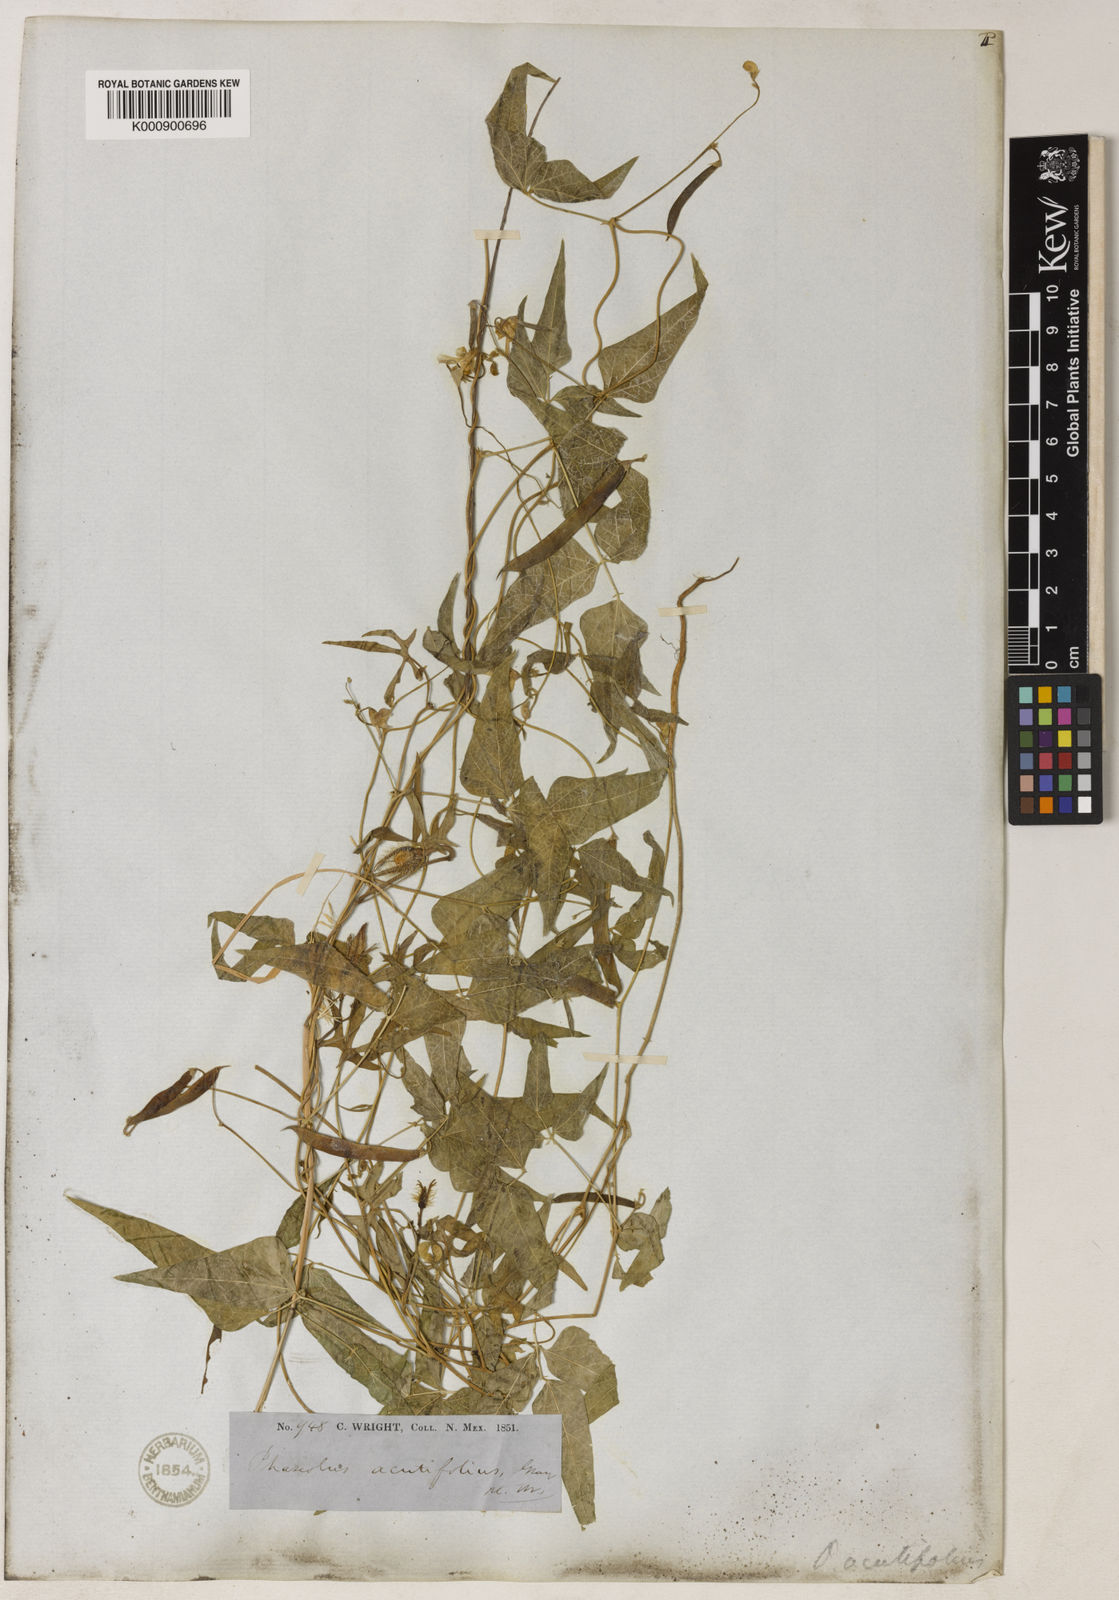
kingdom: Plantae
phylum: Tracheophyta
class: Magnoliopsida
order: Fabales
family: Fabaceae
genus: Phaseolus
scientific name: Phaseolus acutifolius
